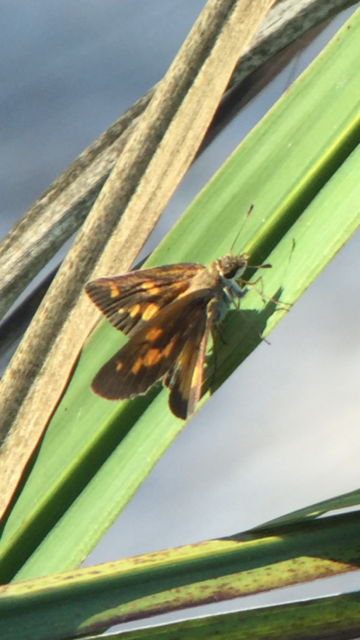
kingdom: Animalia
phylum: Arthropoda
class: Insecta
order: Lepidoptera
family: Hesperiidae
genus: Poanes
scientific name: Poanes viator
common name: Broad-winged Skipper
